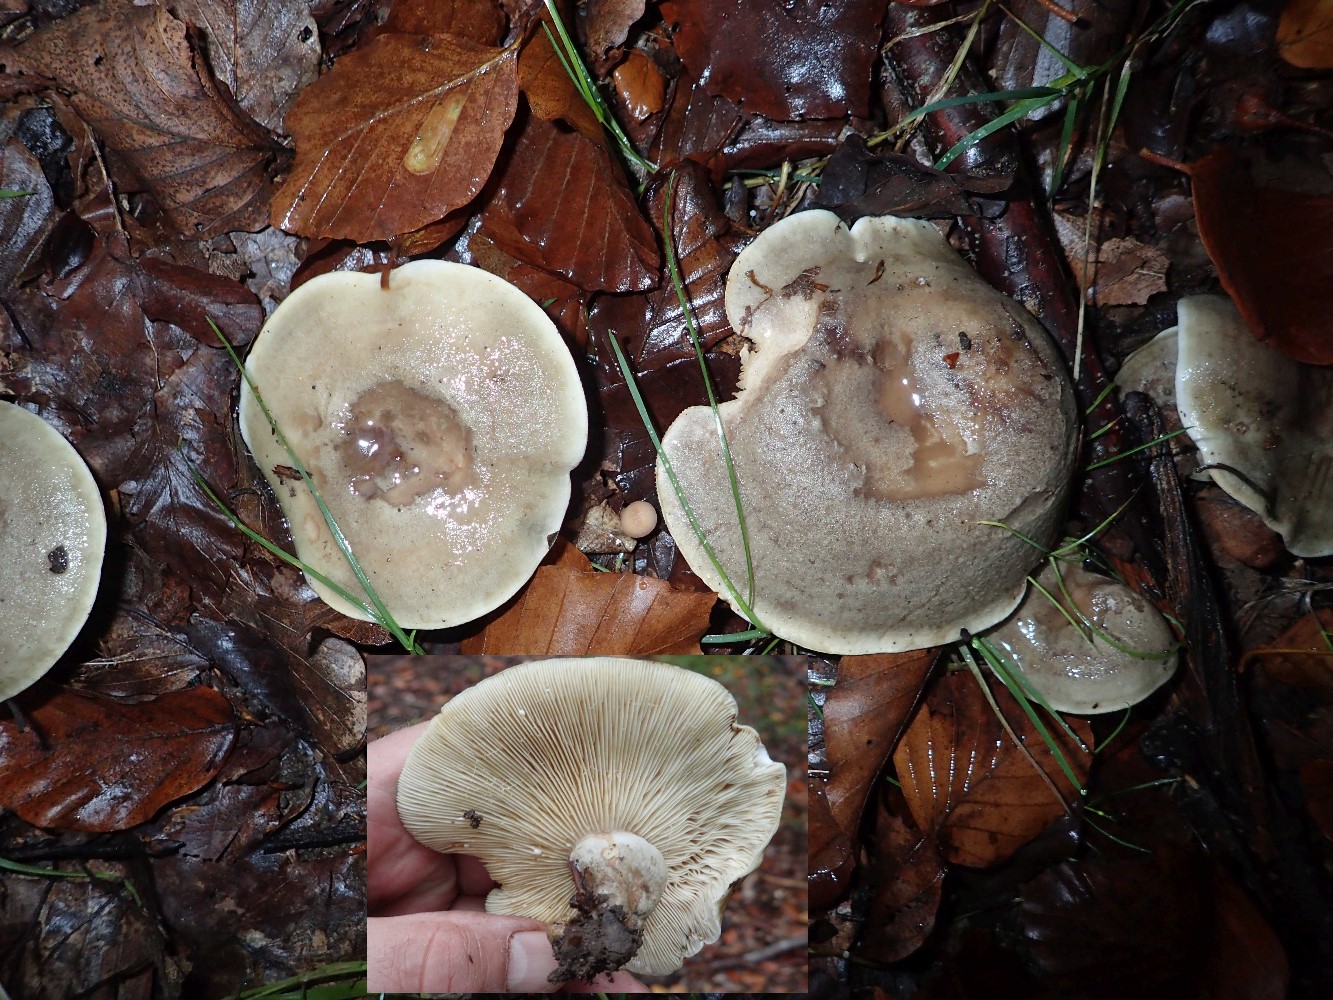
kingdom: Fungi
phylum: Basidiomycota
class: Agaricomycetes
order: Russulales
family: Russulaceae
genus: Lactarius
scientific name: Lactarius fluens
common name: lysrandet mælkehat
